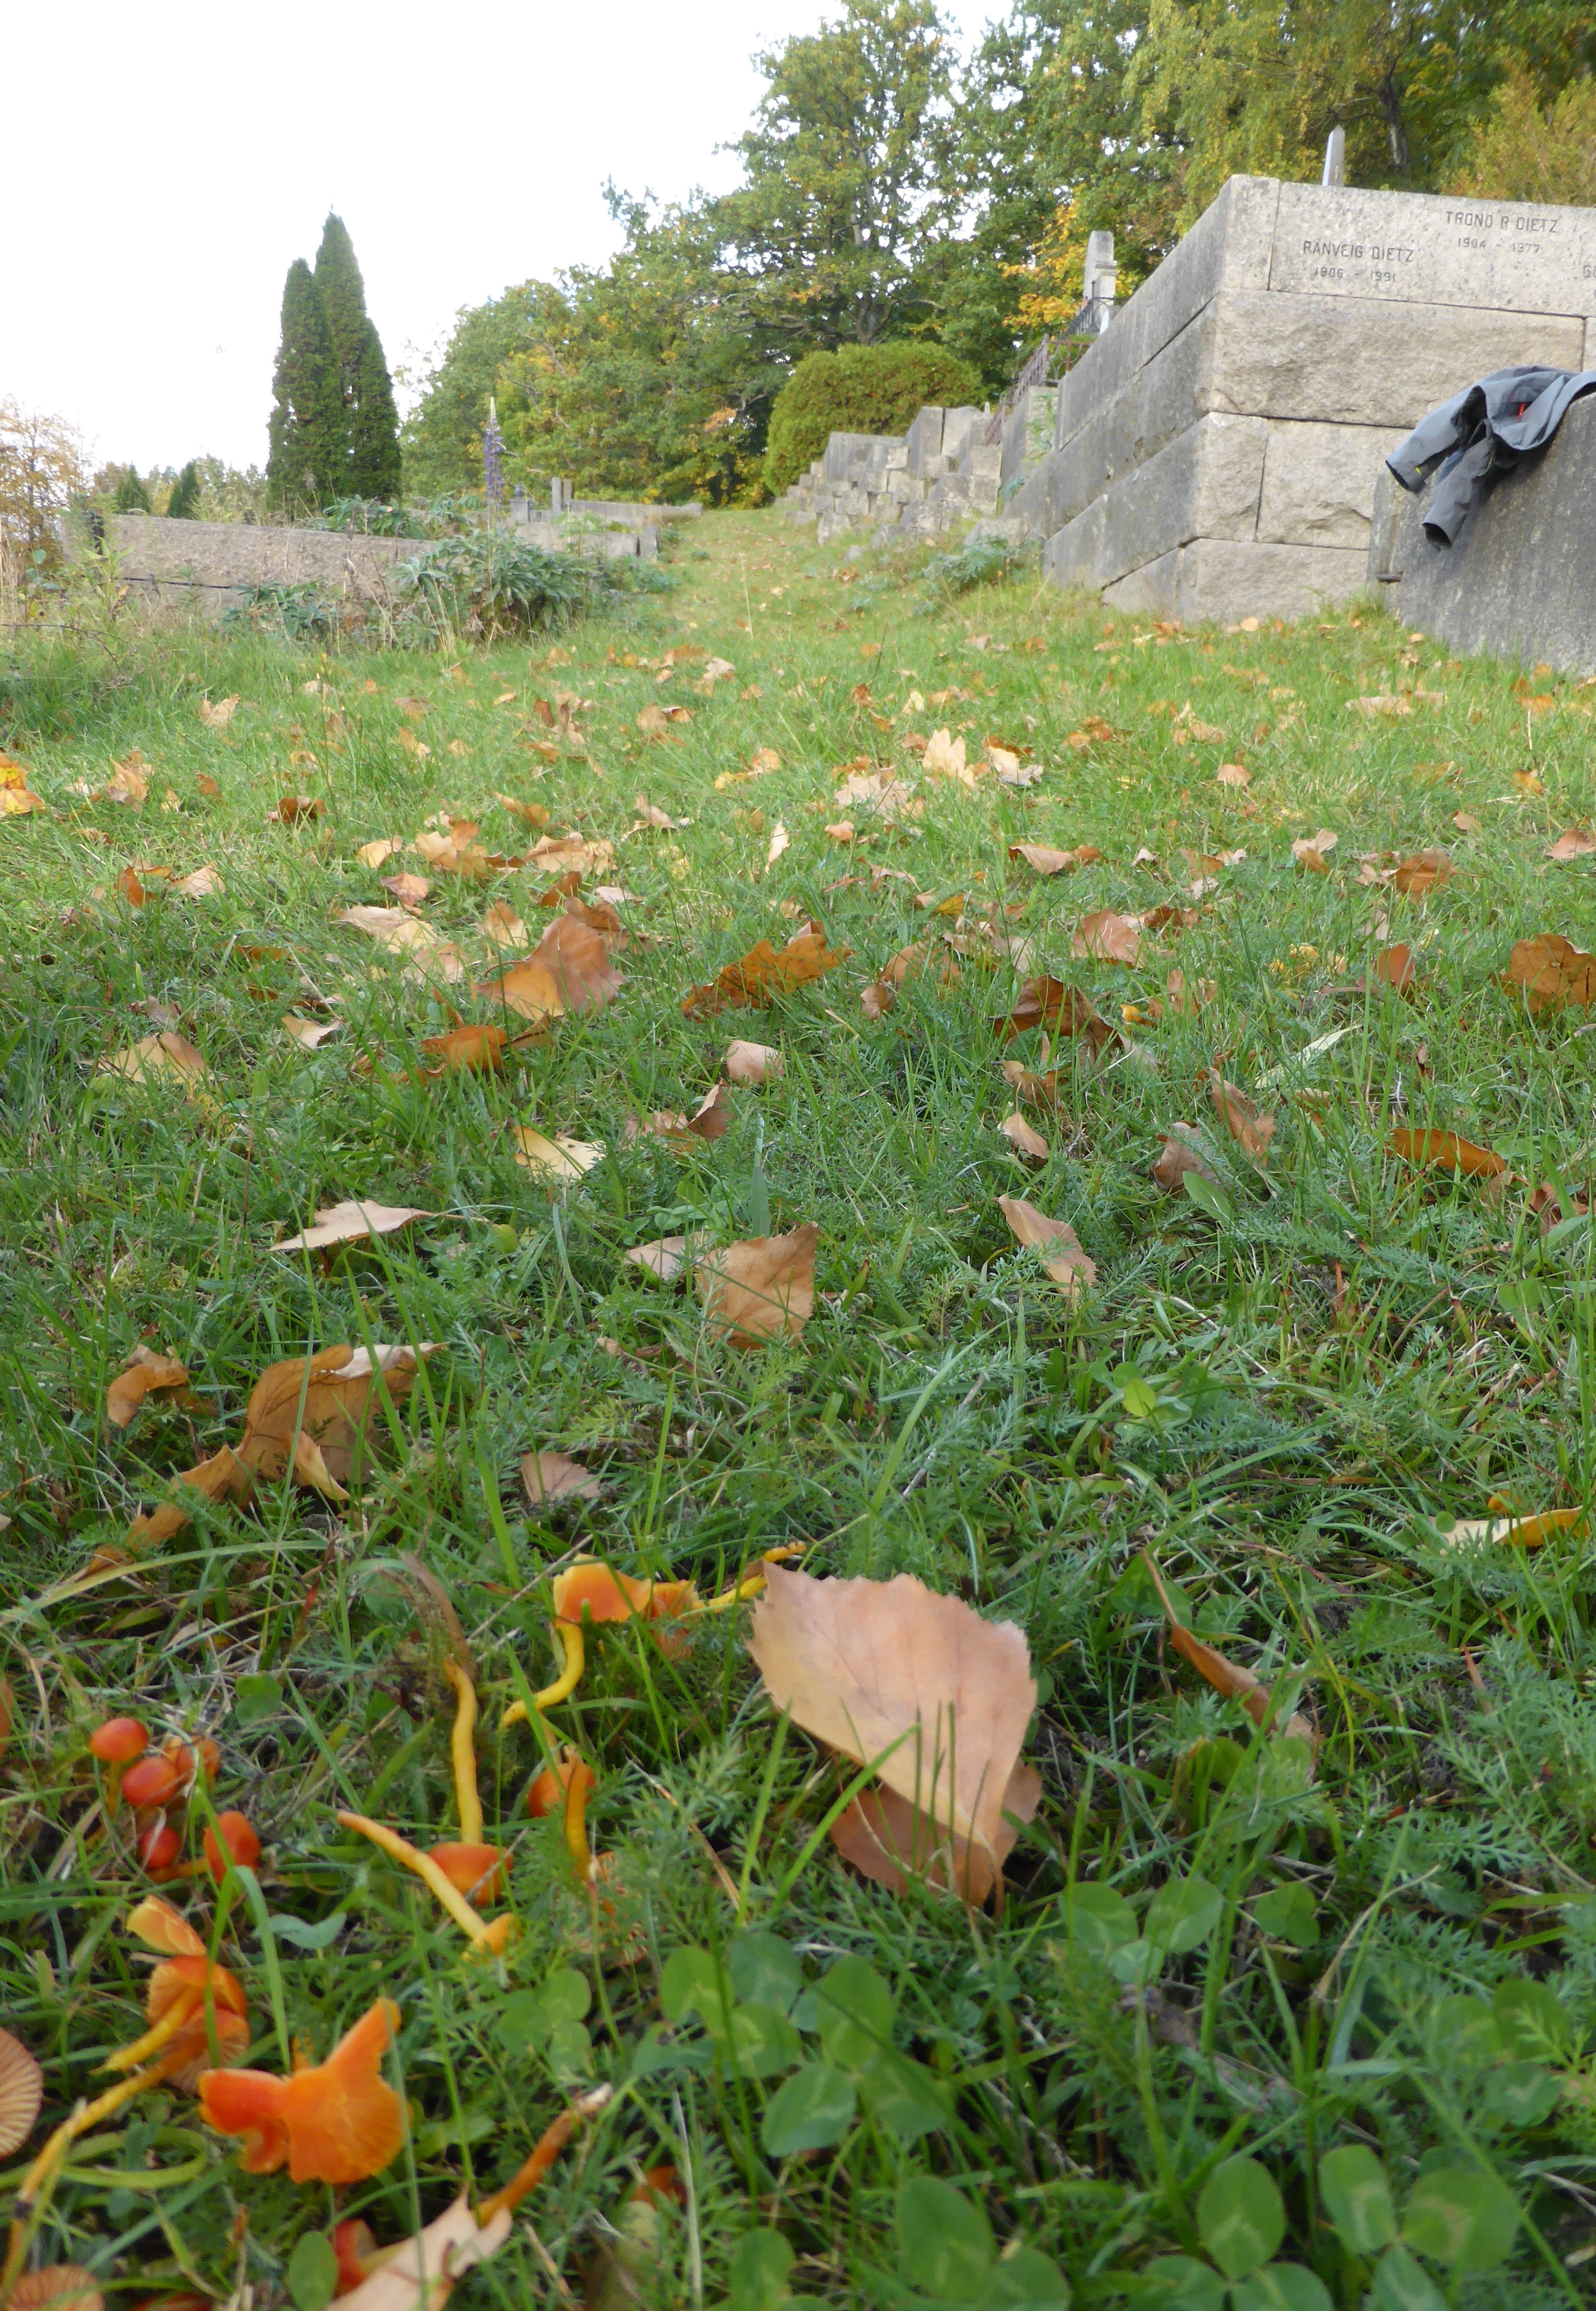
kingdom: Fungi
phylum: Basidiomycota
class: Agaricomycetes
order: Agaricales
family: Hygrophoraceae
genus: Hygrocybe
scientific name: Hygrocybe constrictospora
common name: Hourglass waxcap
